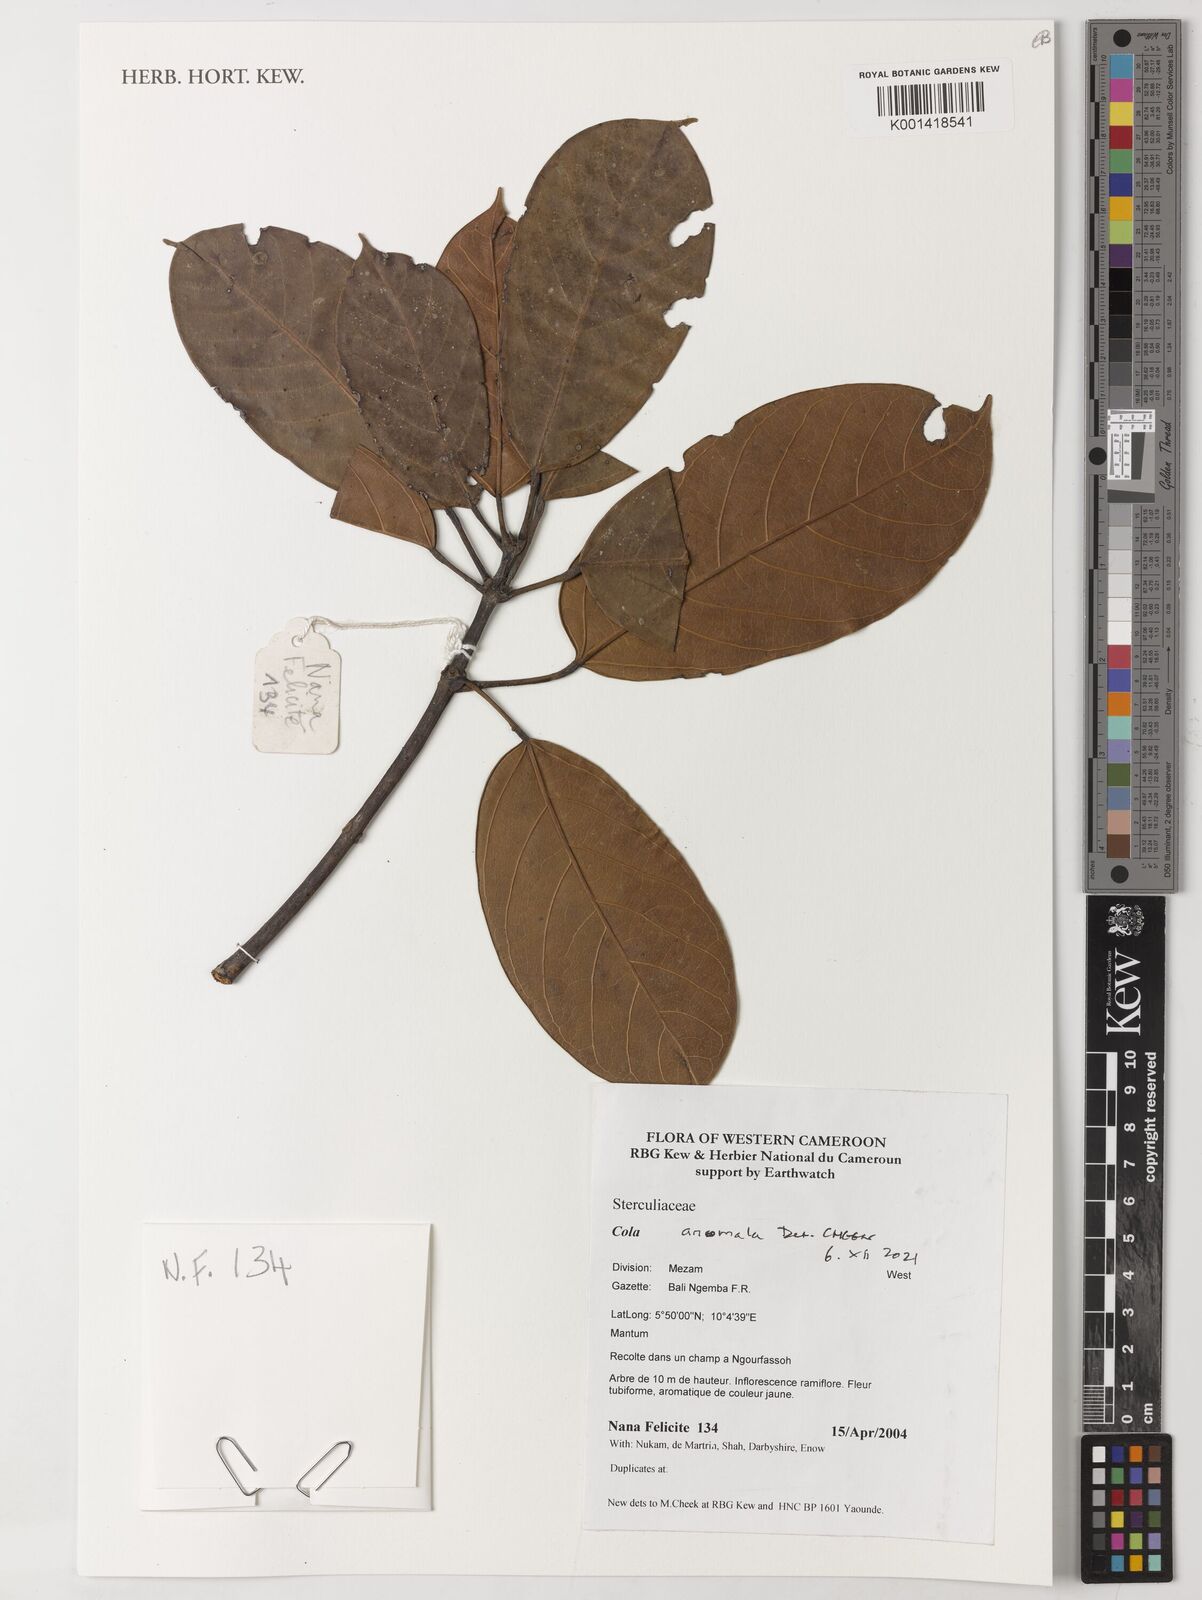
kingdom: Plantae
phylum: Tracheophyta
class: Magnoliopsida
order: Malvales
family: Malvaceae
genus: Cola
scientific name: Cola anomala
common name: Bamenda cola
